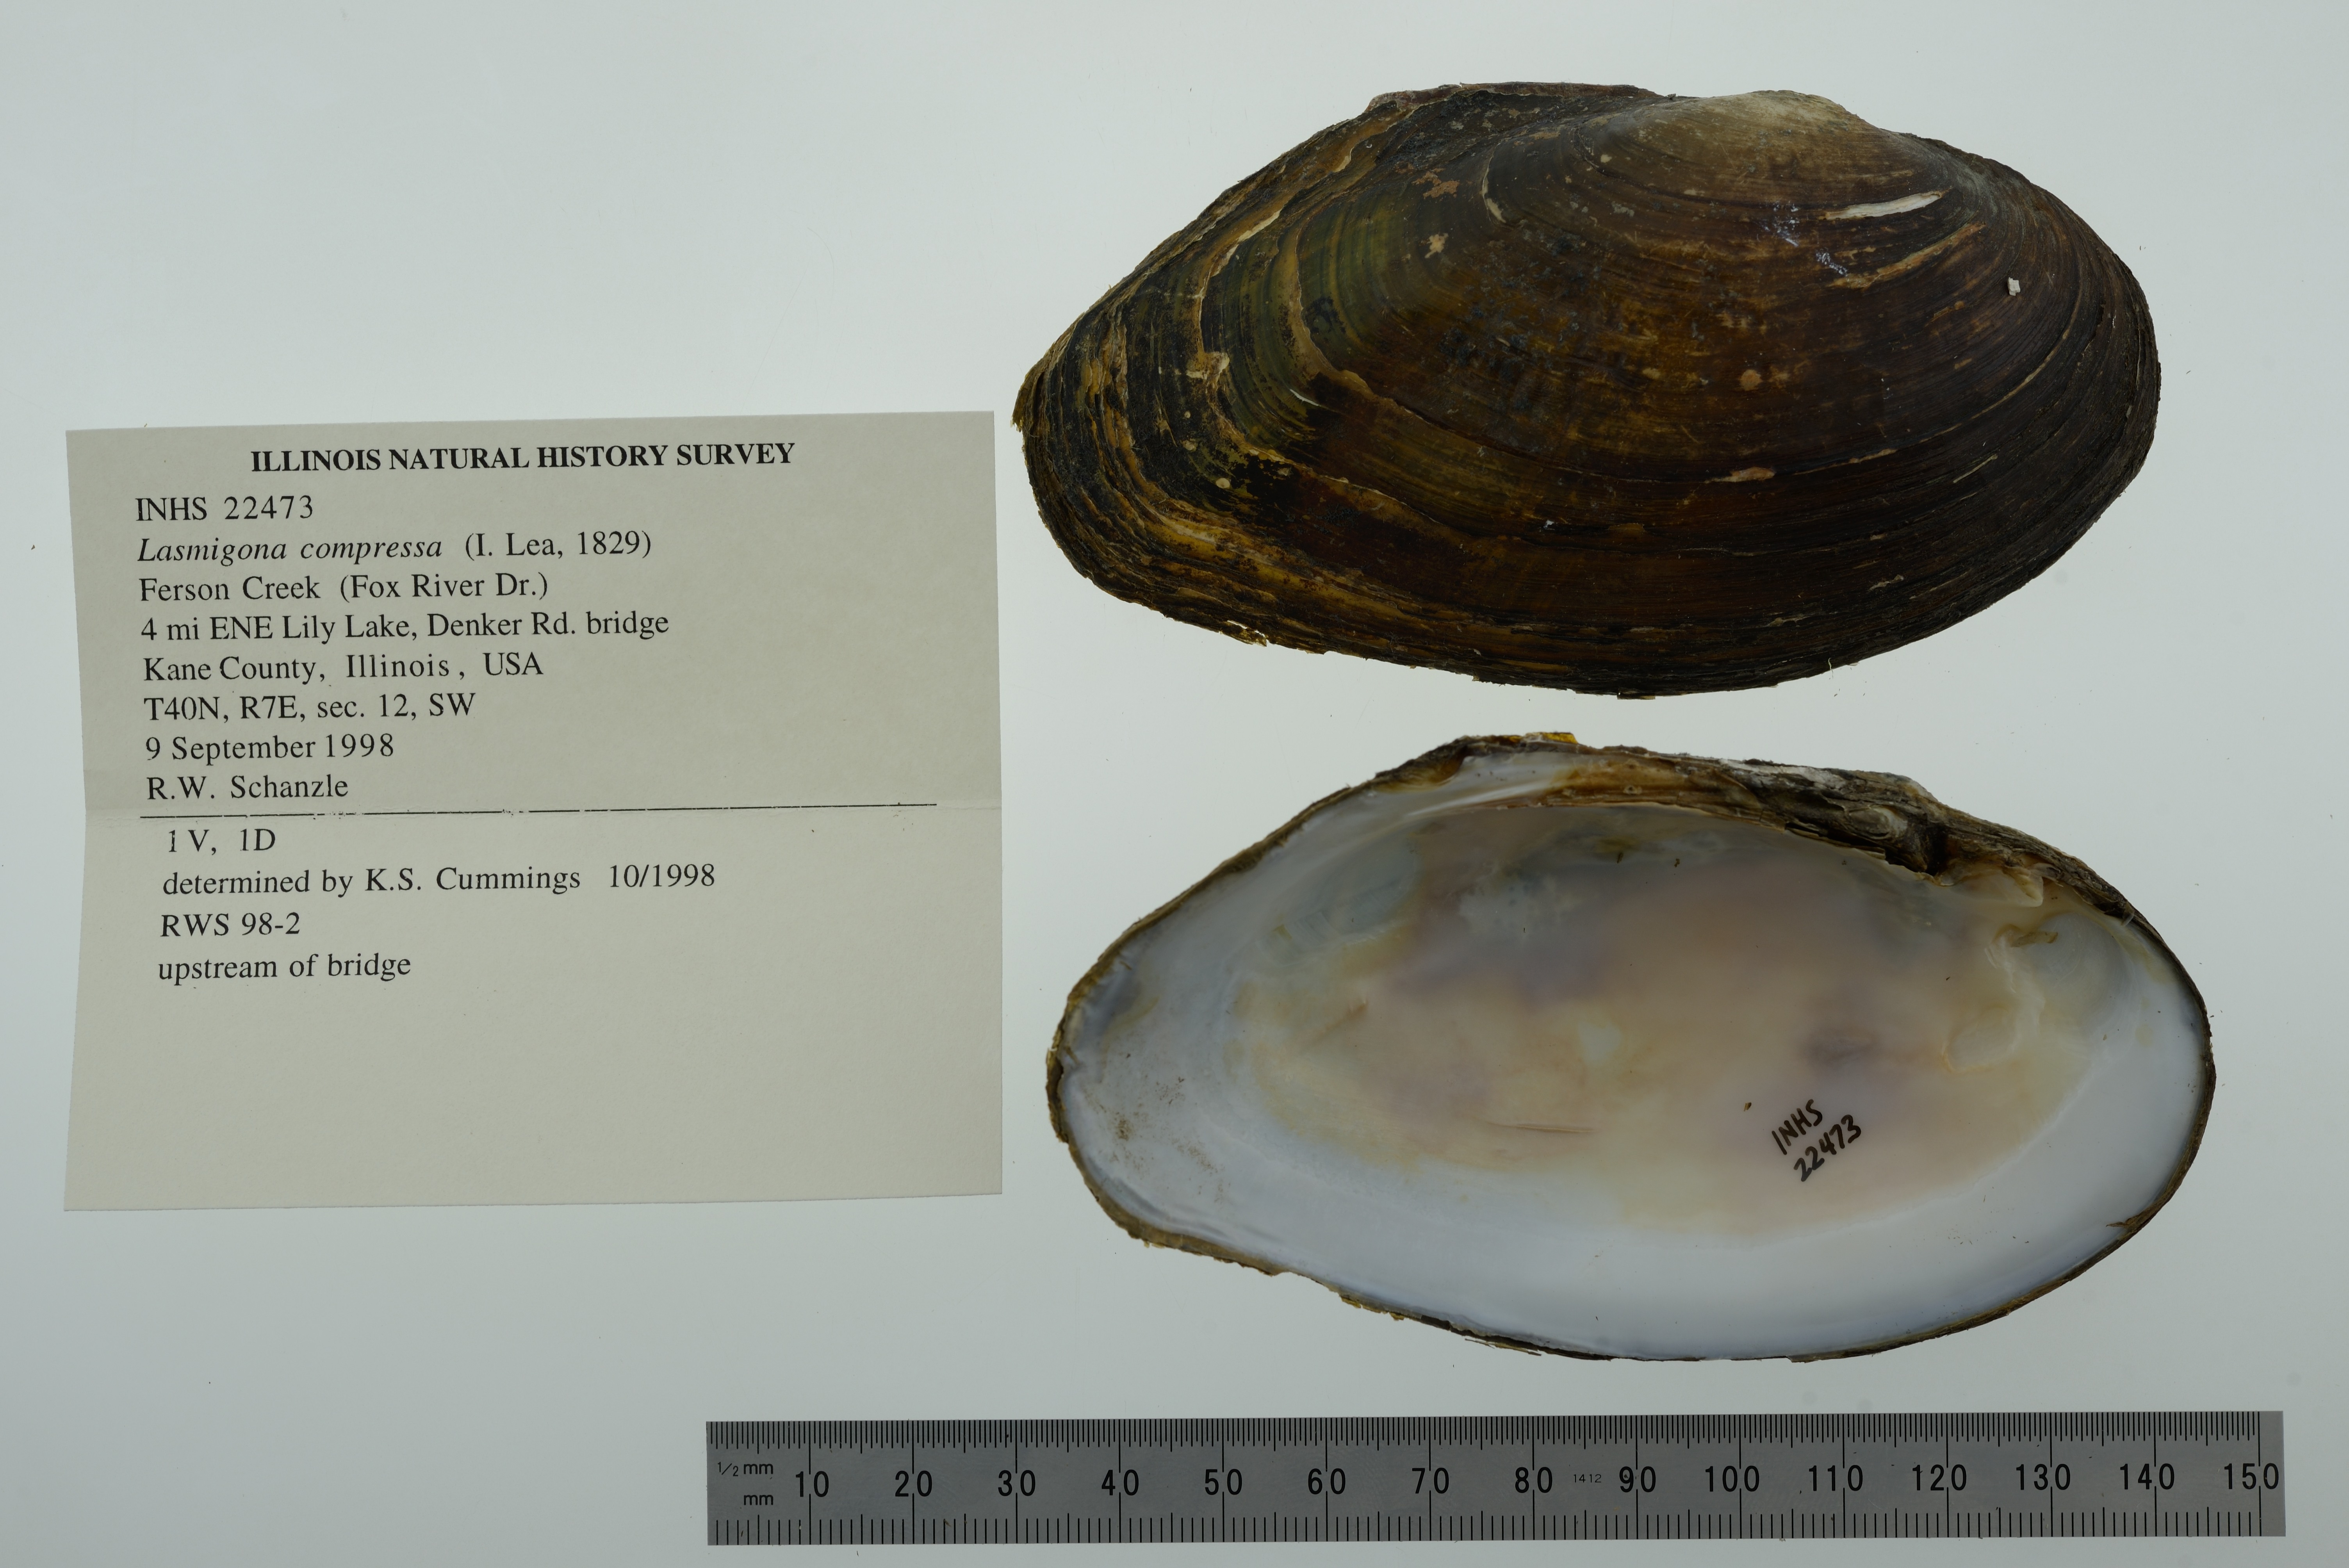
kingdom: Animalia
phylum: Mollusca
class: Bivalvia
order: Unionida
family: Unionidae
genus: Lasmigona
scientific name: Lasmigona compressa
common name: Creek heelsplitter
